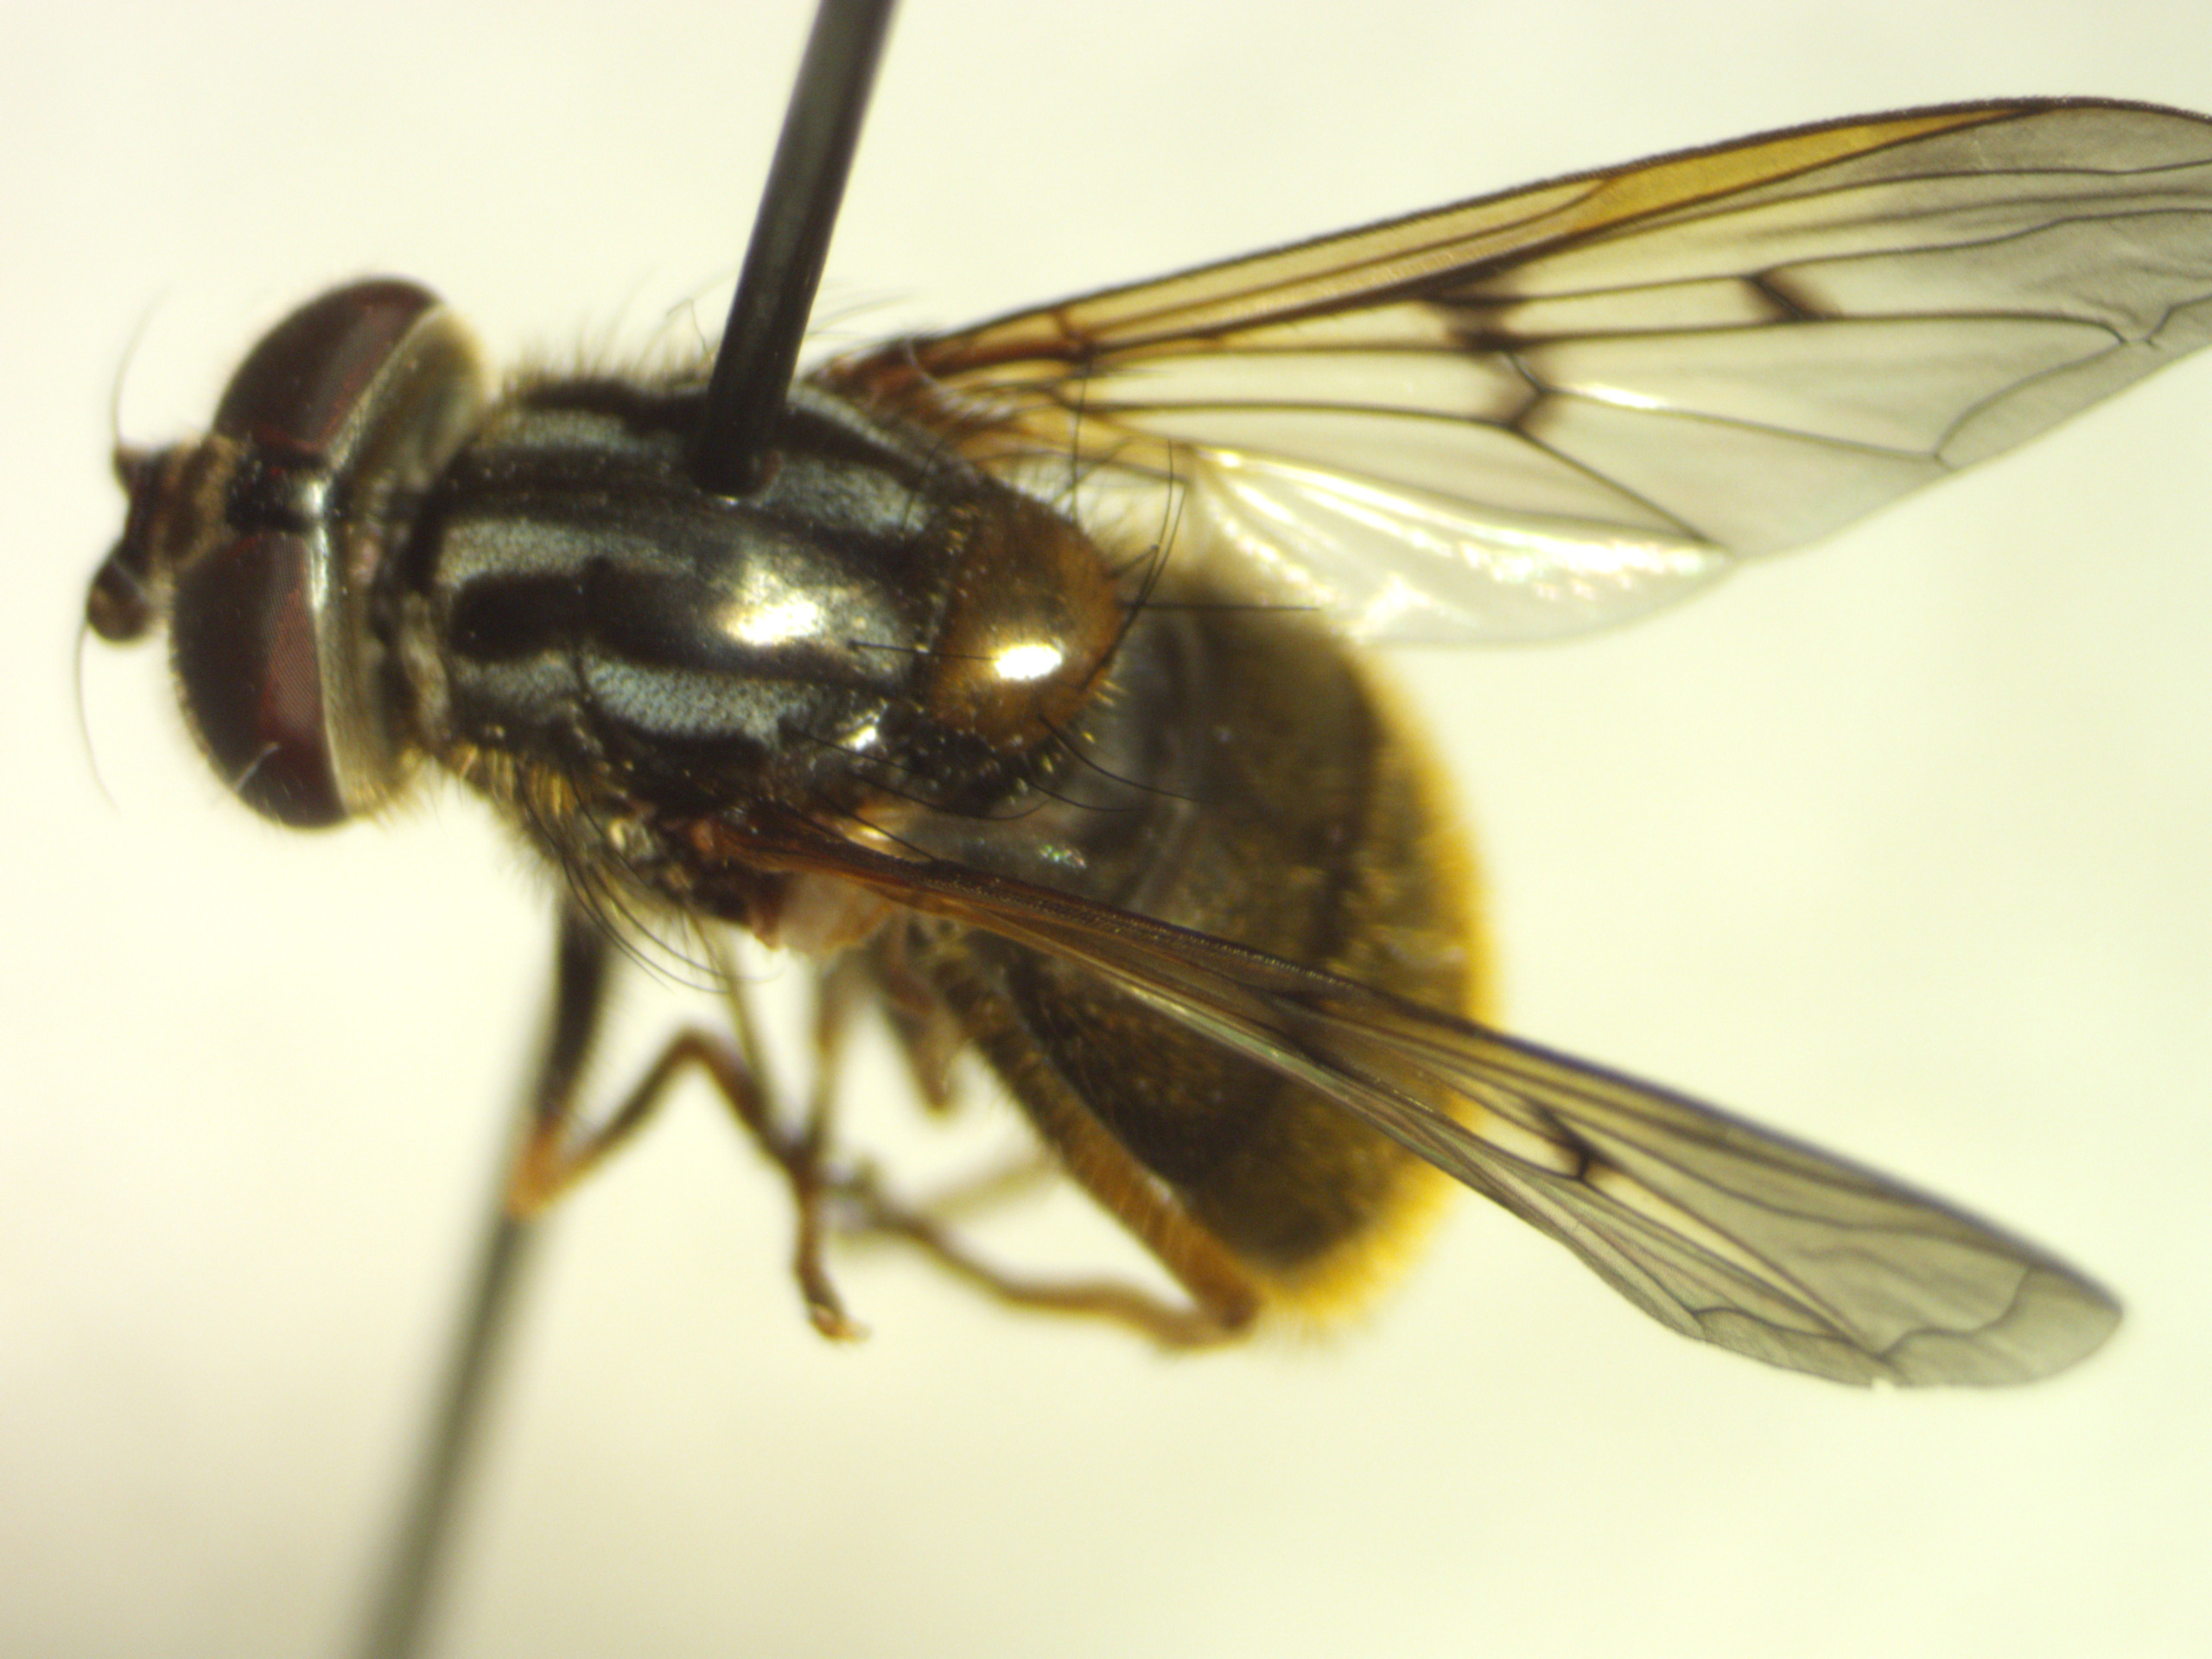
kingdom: Animalia
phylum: Arthropoda
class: Insecta
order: Diptera
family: Syrphidae
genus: Ferdinandea
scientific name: Ferdinandea cuprea
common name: Sorthornet guldsvirreflue
